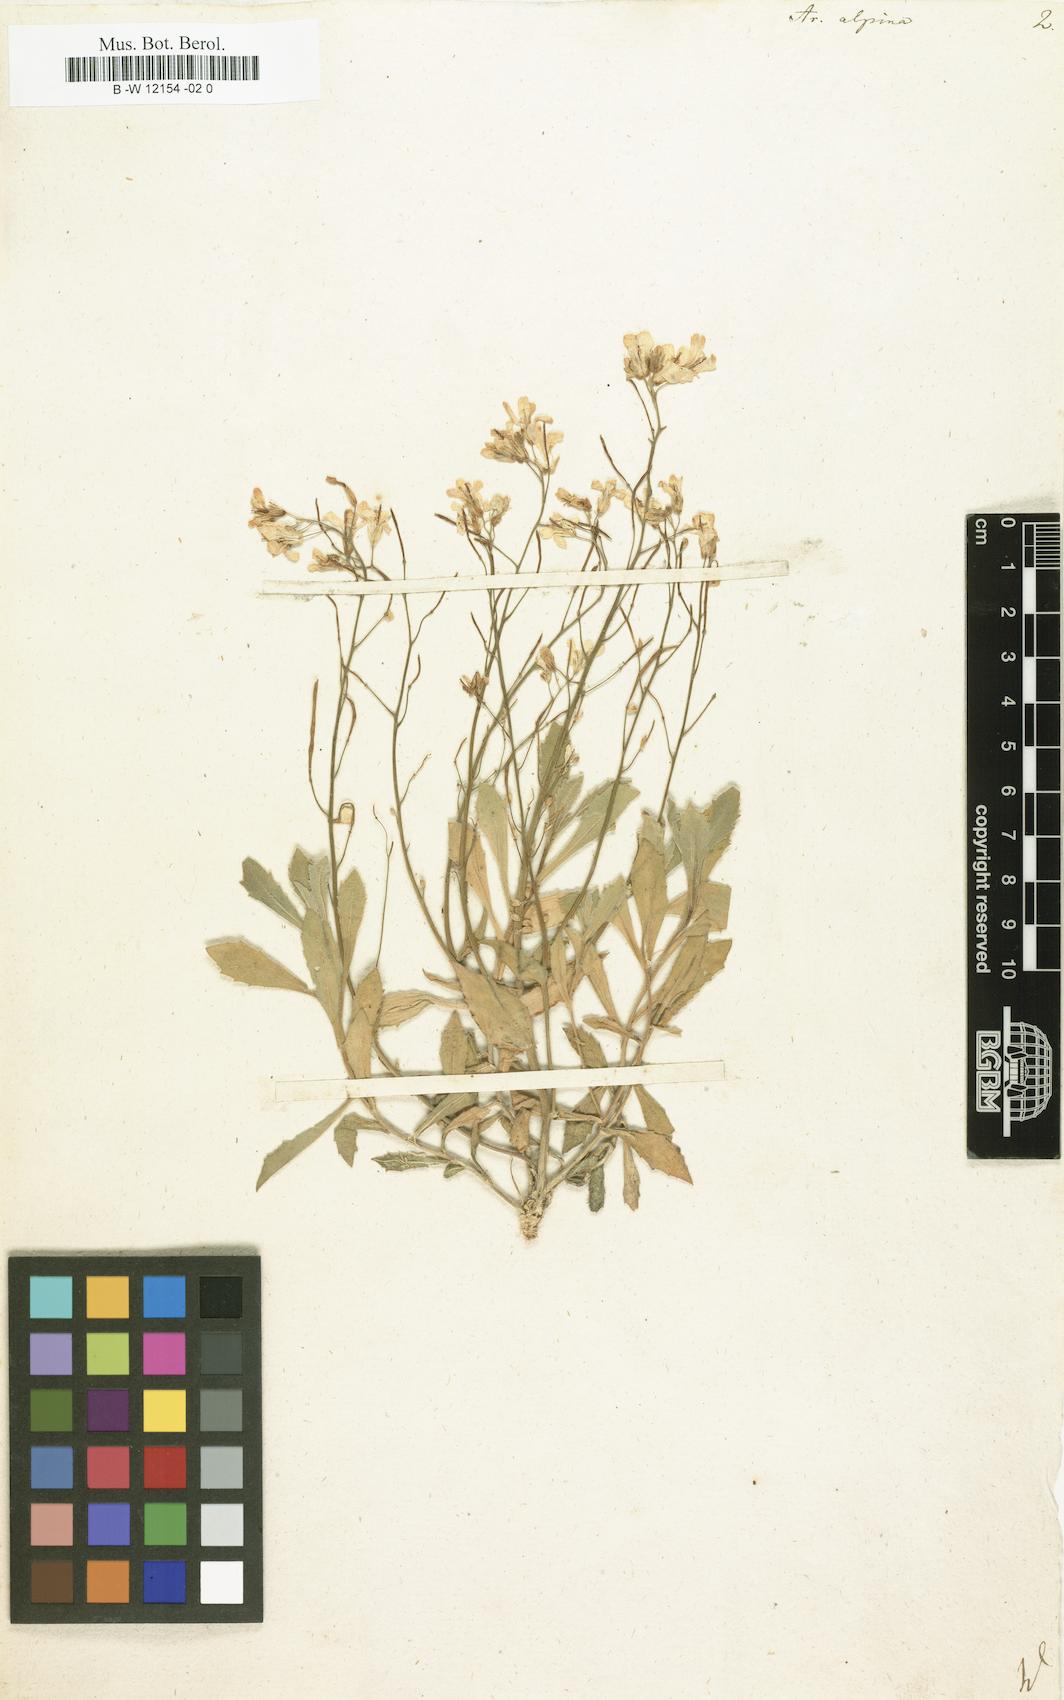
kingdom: Plantae
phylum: Tracheophyta
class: Magnoliopsida
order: Brassicales
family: Brassicaceae
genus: Arabis
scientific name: Arabis alpina
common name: Alpine rock-cress
